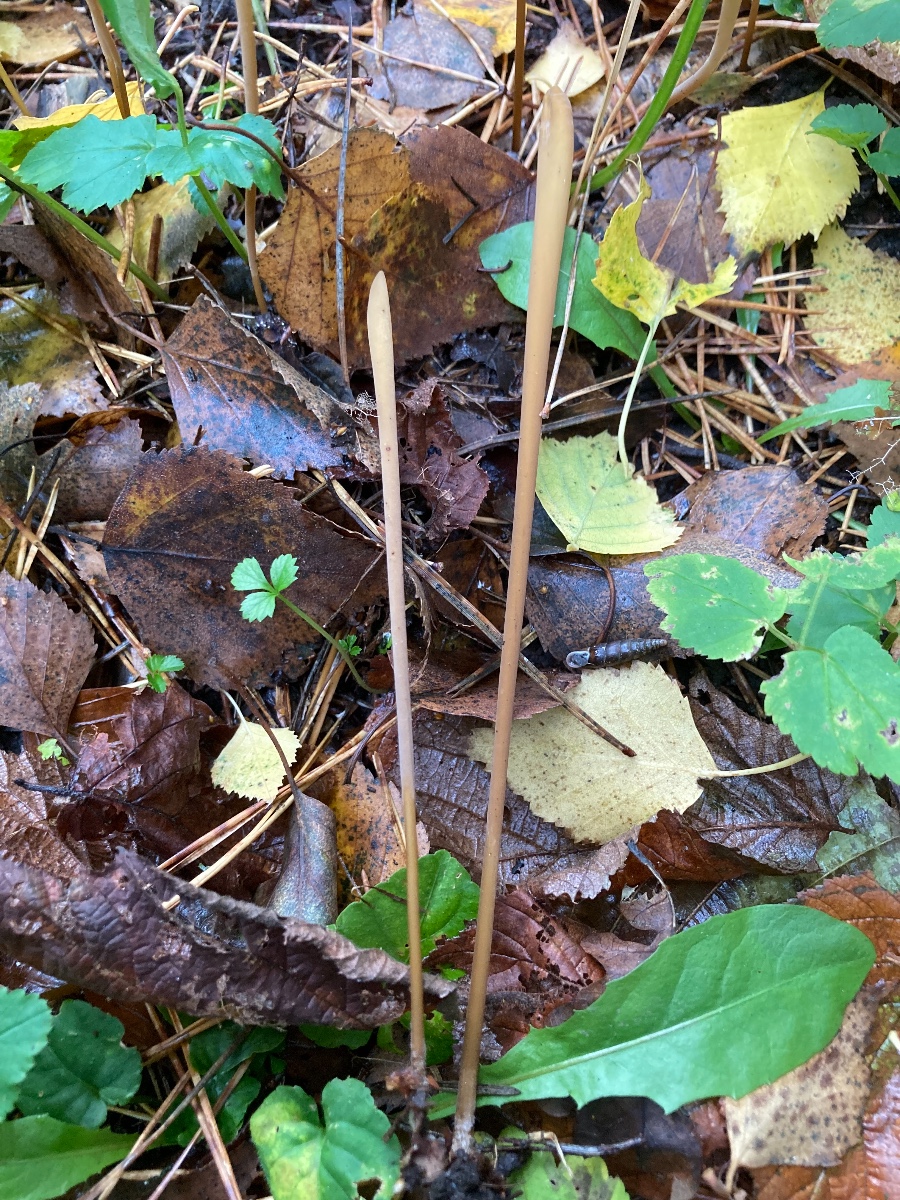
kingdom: Fungi
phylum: Basidiomycota
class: Agaricomycetes
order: Agaricales
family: Typhulaceae
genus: Typhula
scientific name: Typhula fistulosa
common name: pibet rørkølle
